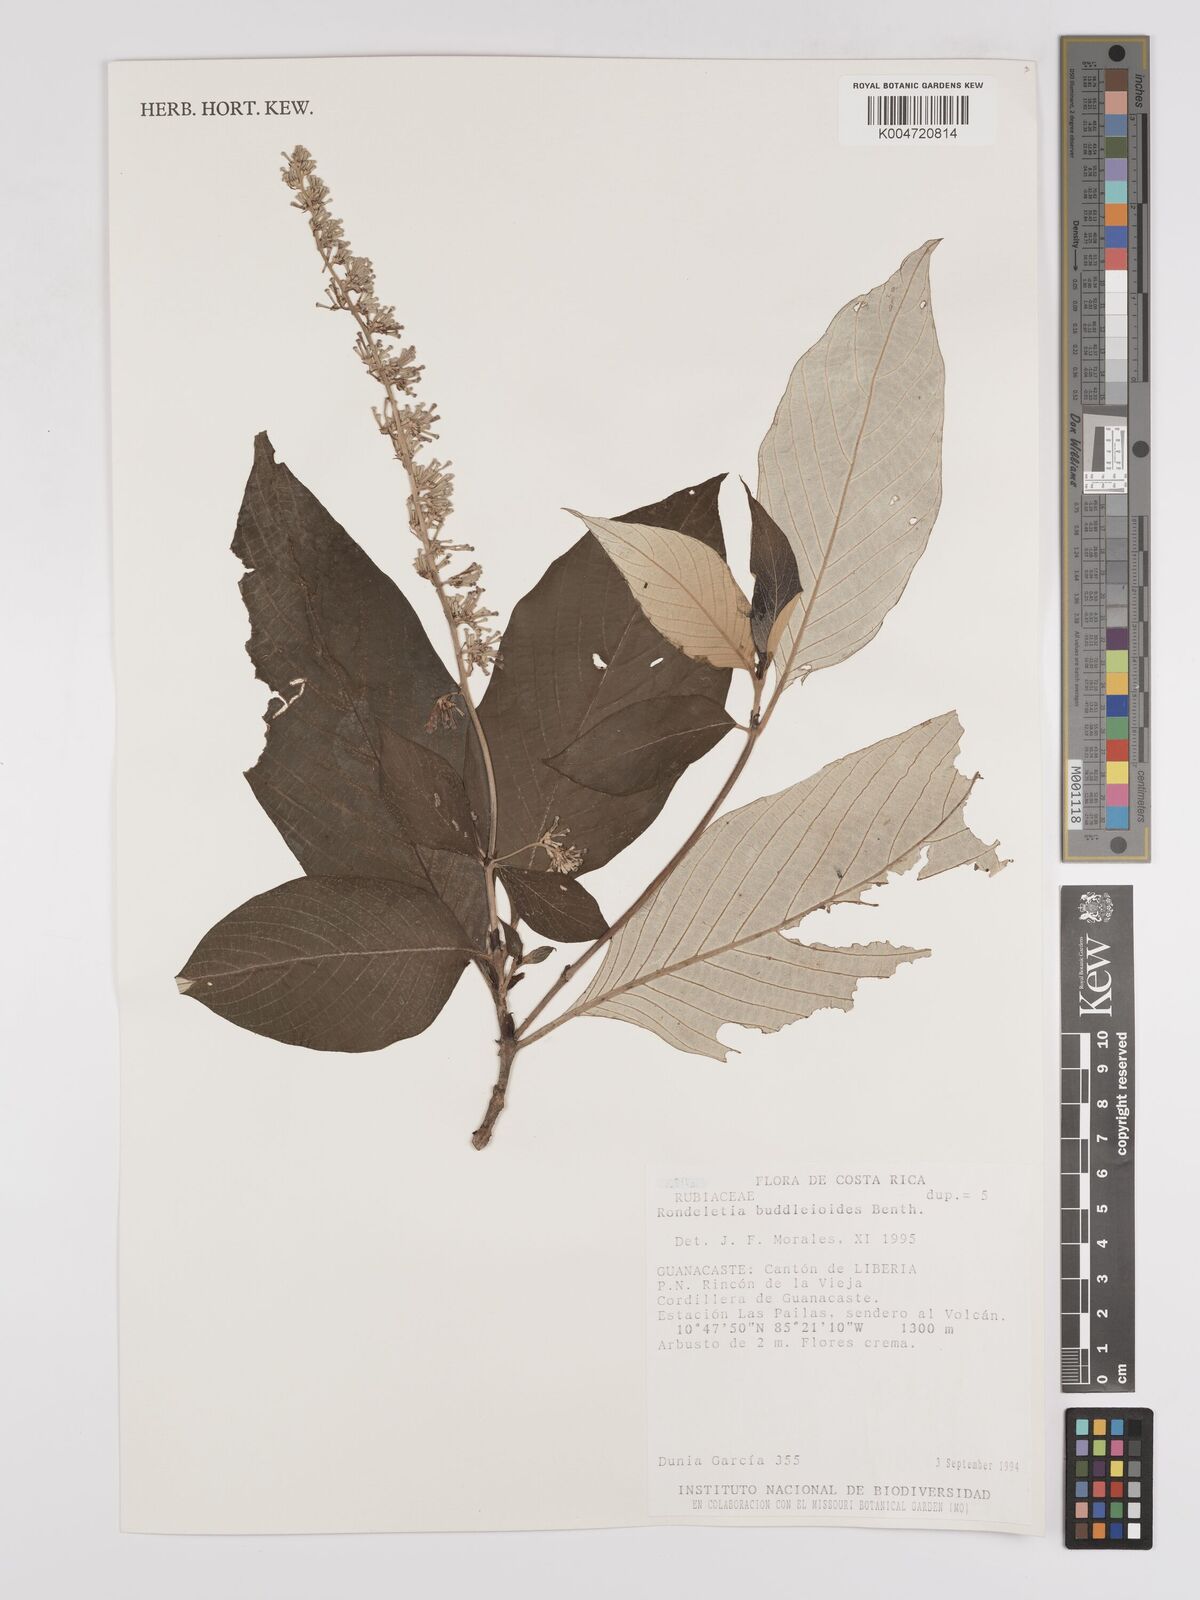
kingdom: Plantae
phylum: Tracheophyta
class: Magnoliopsida
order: Gentianales
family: Rubiaceae
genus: Arachnothryx
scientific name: Arachnothryx buddleioides
